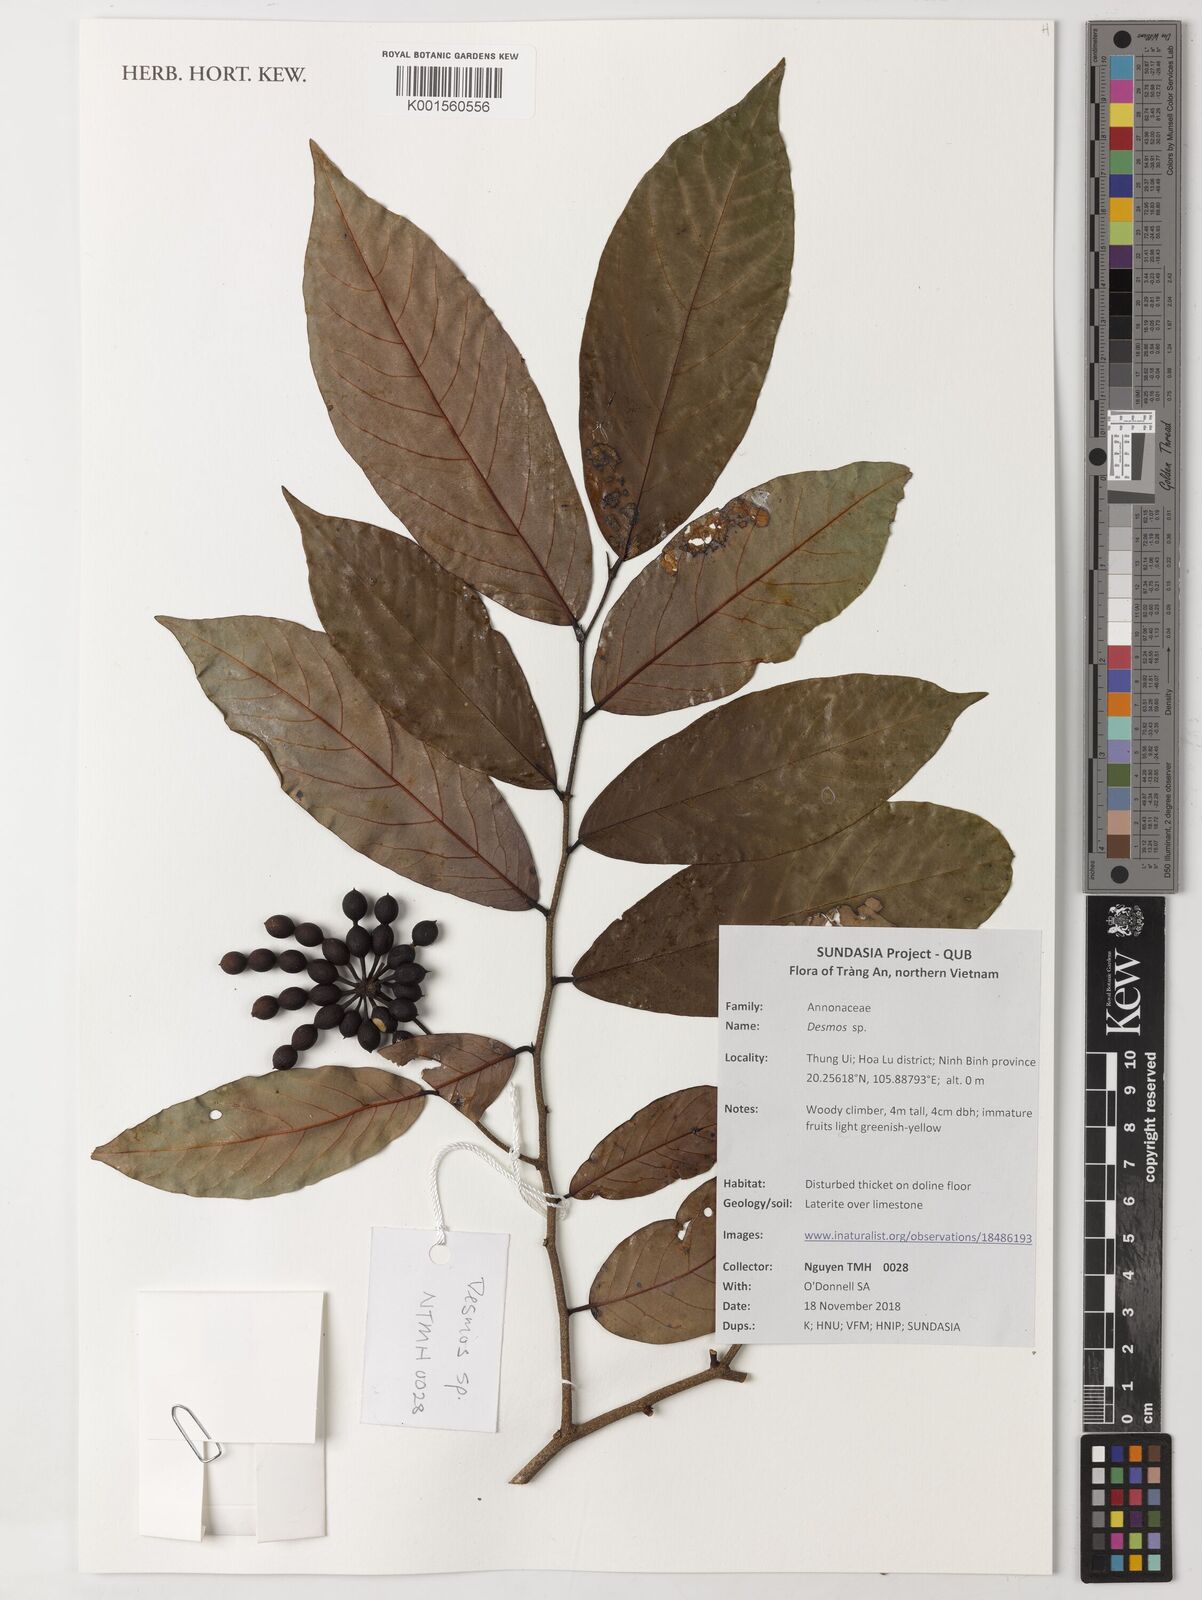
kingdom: Plantae
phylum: Tracheophyta
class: Magnoliopsida
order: Magnoliales
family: Annonaceae
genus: Desmos
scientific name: Desmos
